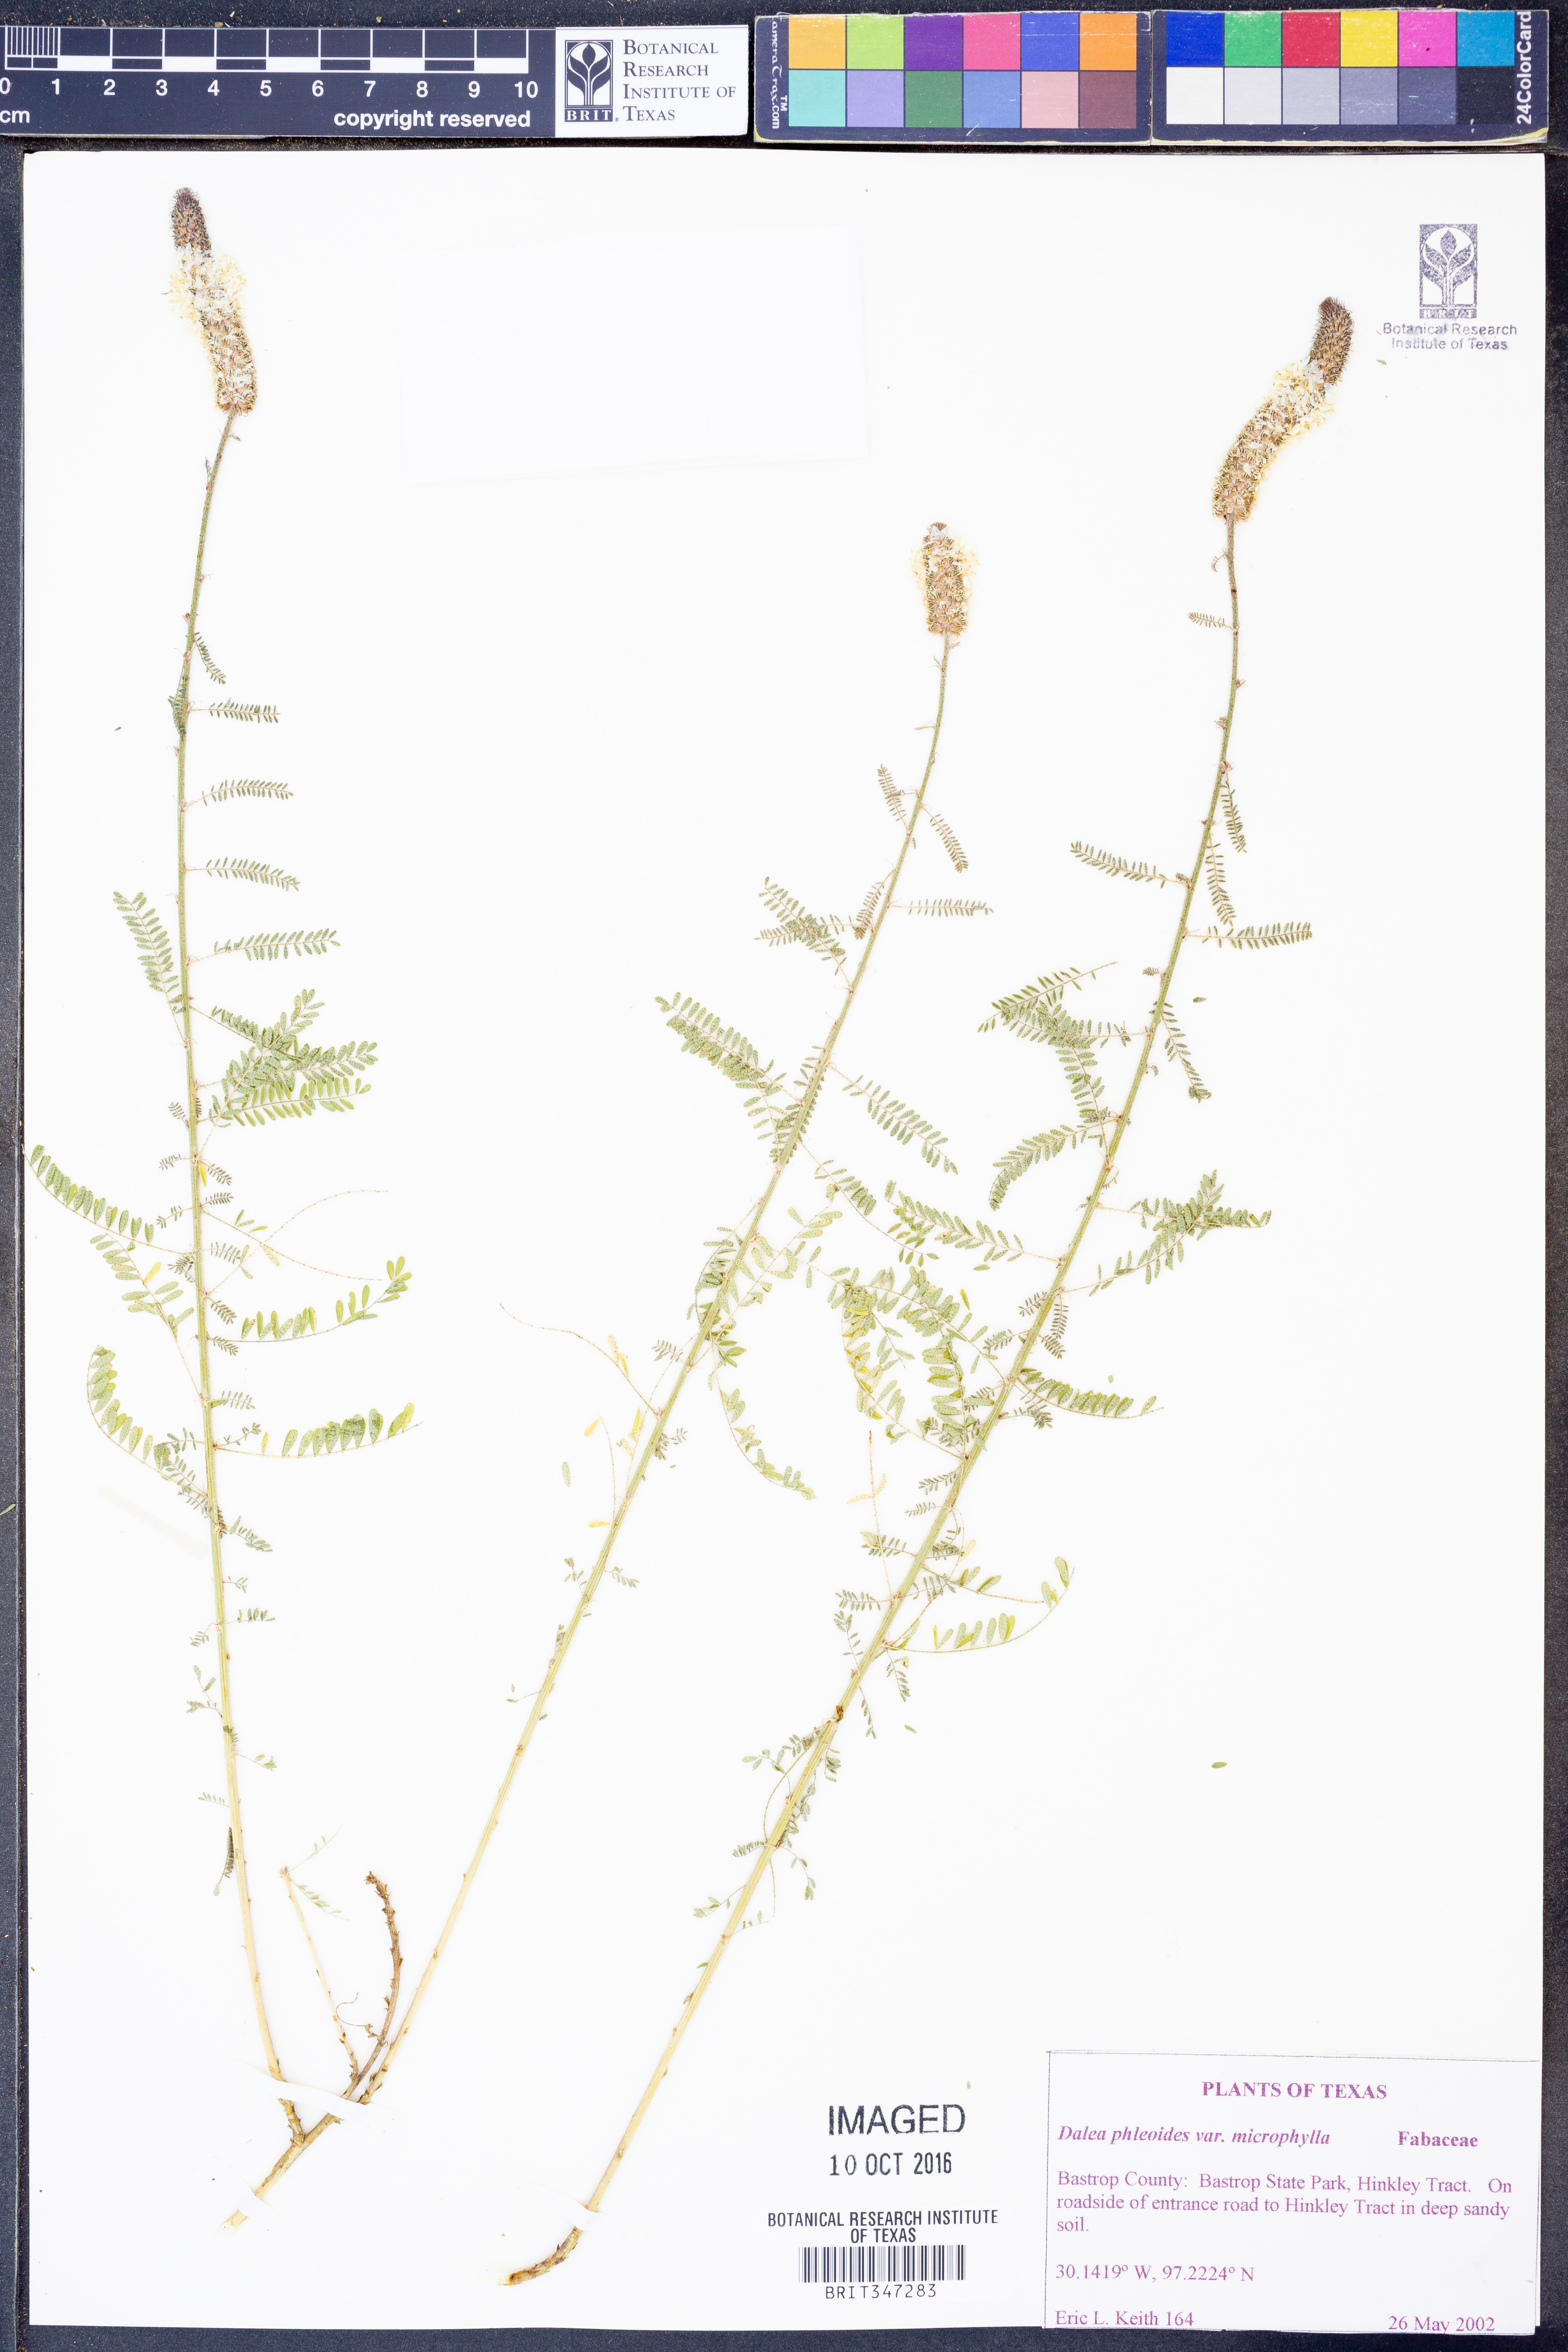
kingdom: Plantae
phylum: Tracheophyta
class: Magnoliopsida
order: Fabales
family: Fabaceae
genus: Dalea
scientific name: Dalea drummondiana
